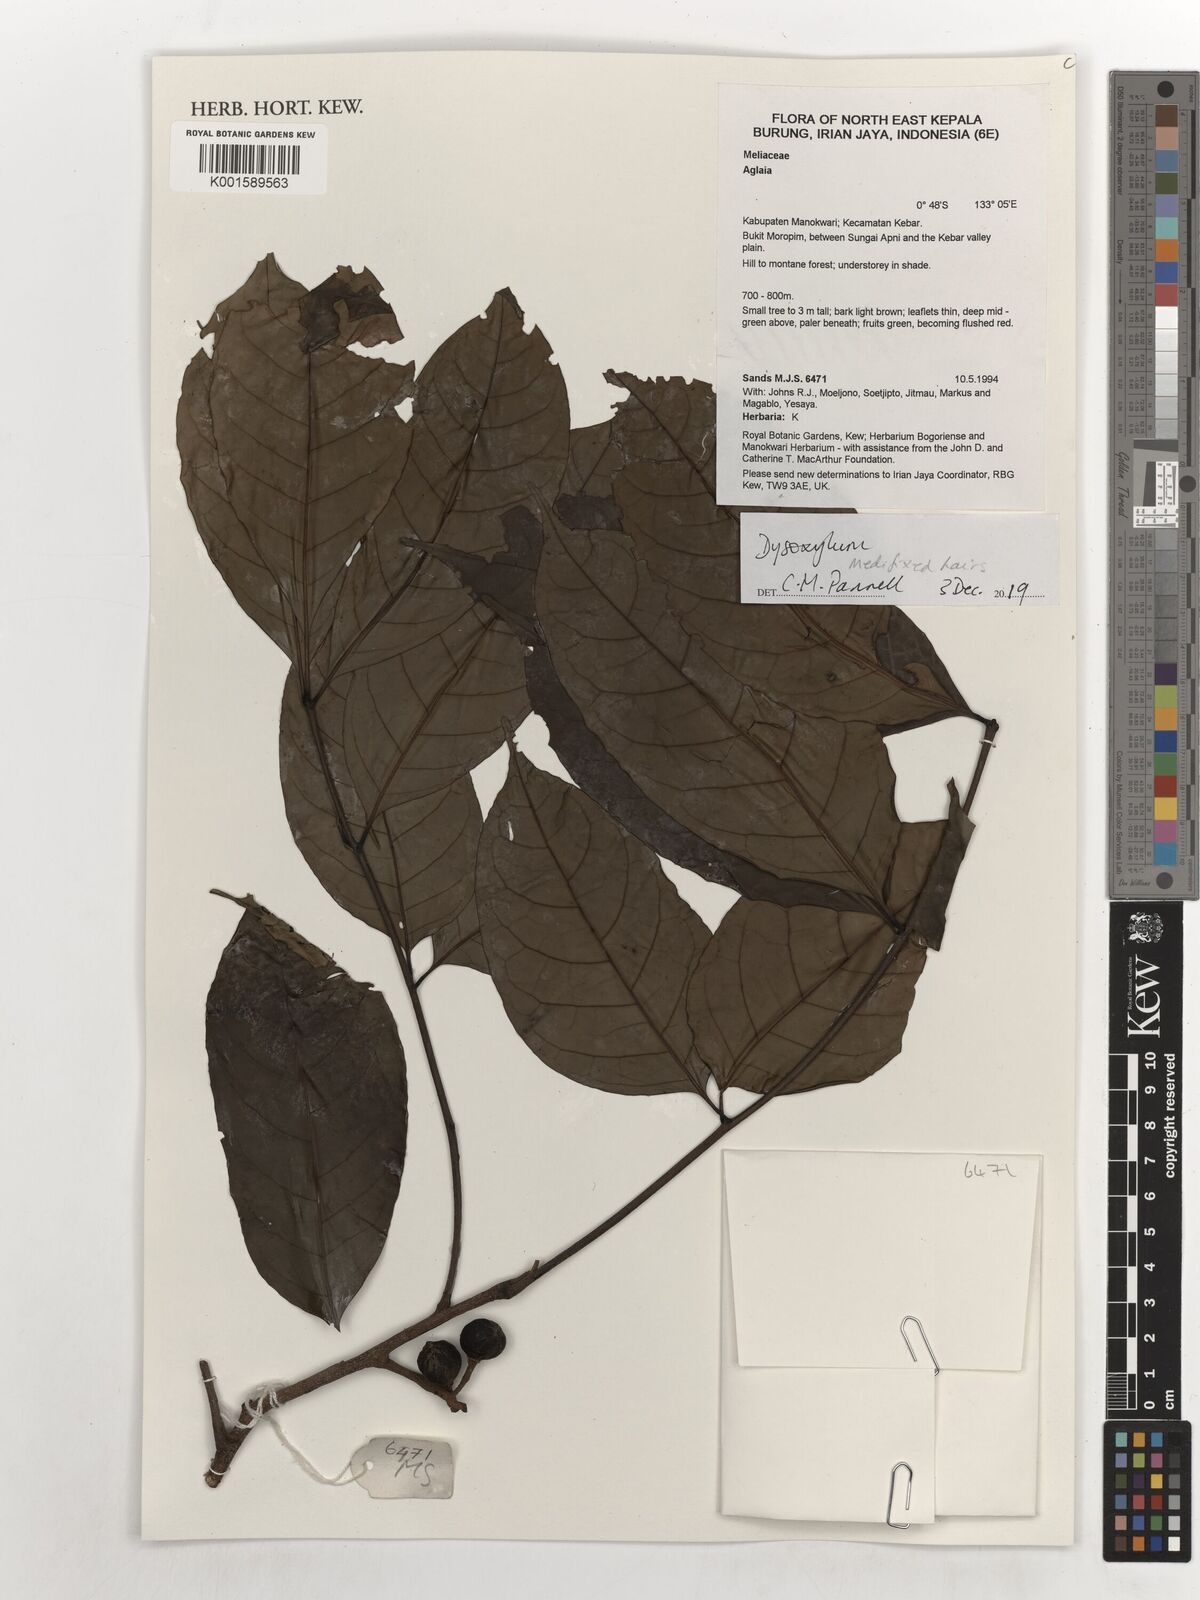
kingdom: Plantae
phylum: Tracheophyta
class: Magnoliopsida
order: Sapindales
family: Meliaceae
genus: Dysoxylum
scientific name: Dysoxylum
